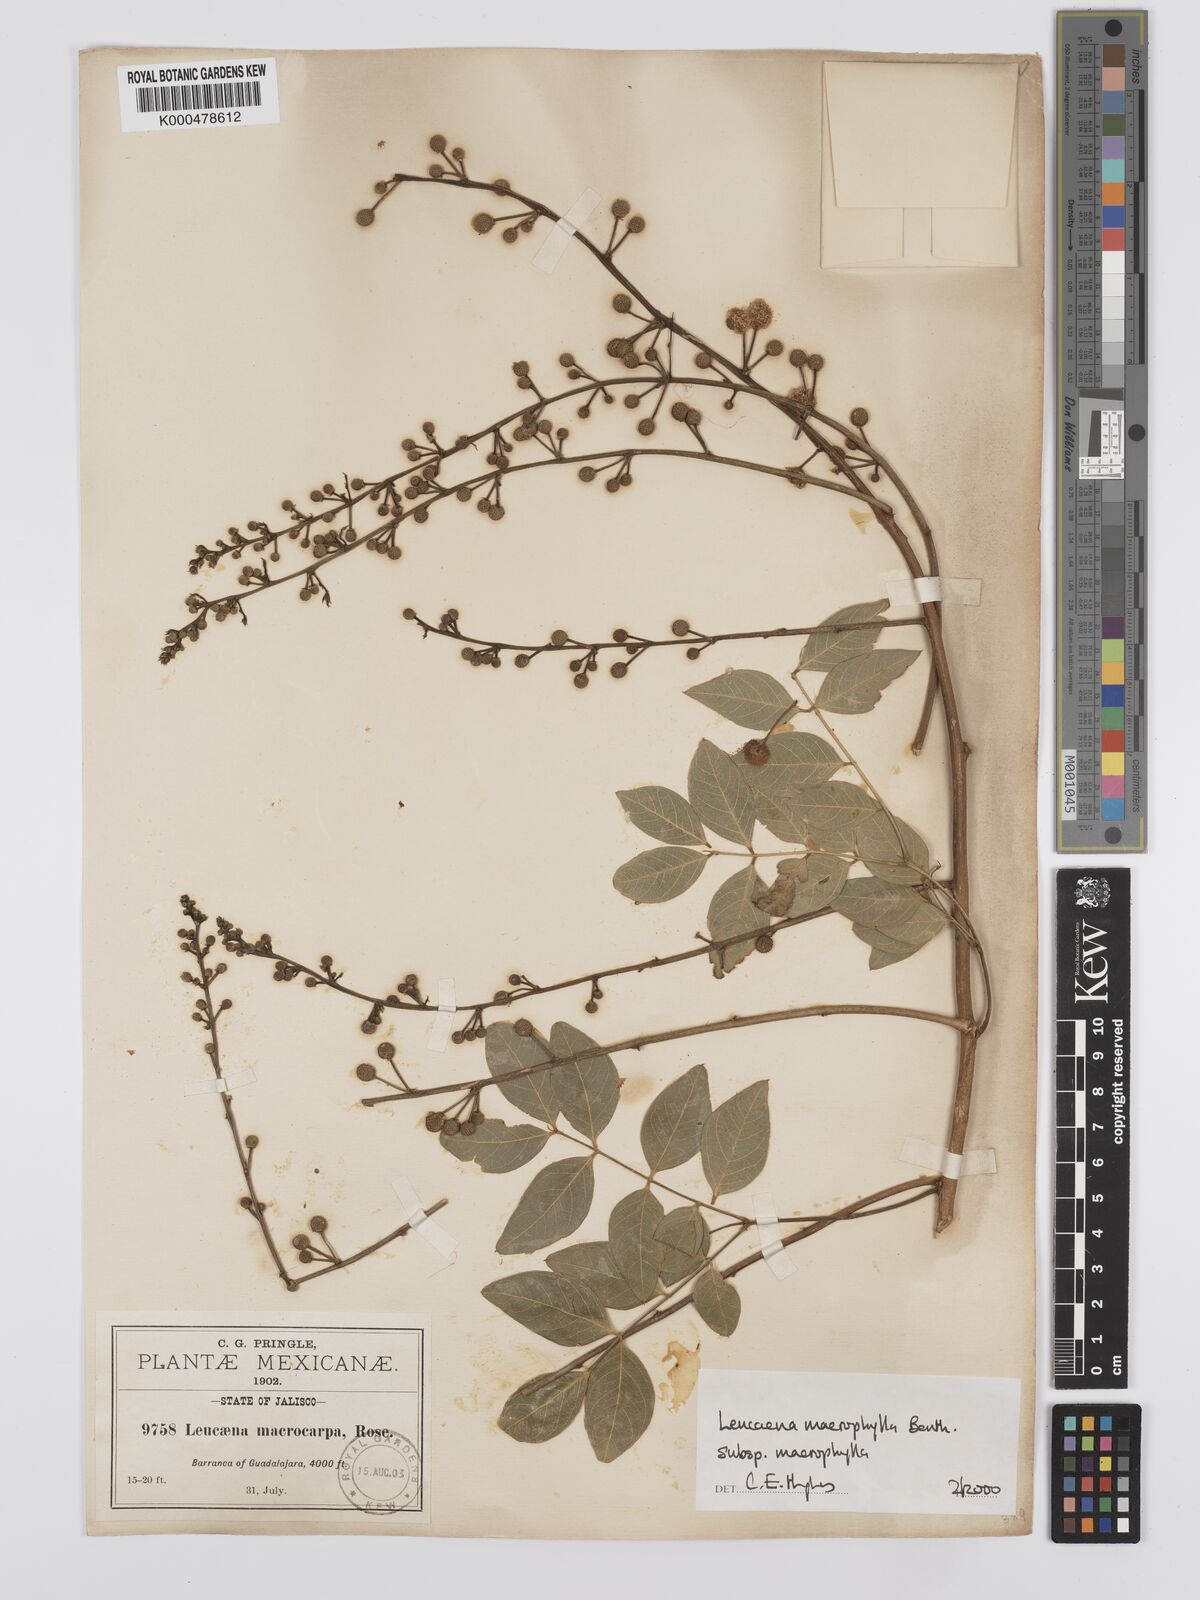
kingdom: Plantae
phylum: Tracheophyta
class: Magnoliopsida
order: Fabales
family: Fabaceae
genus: Leucaena
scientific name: Leucaena macrophylla
